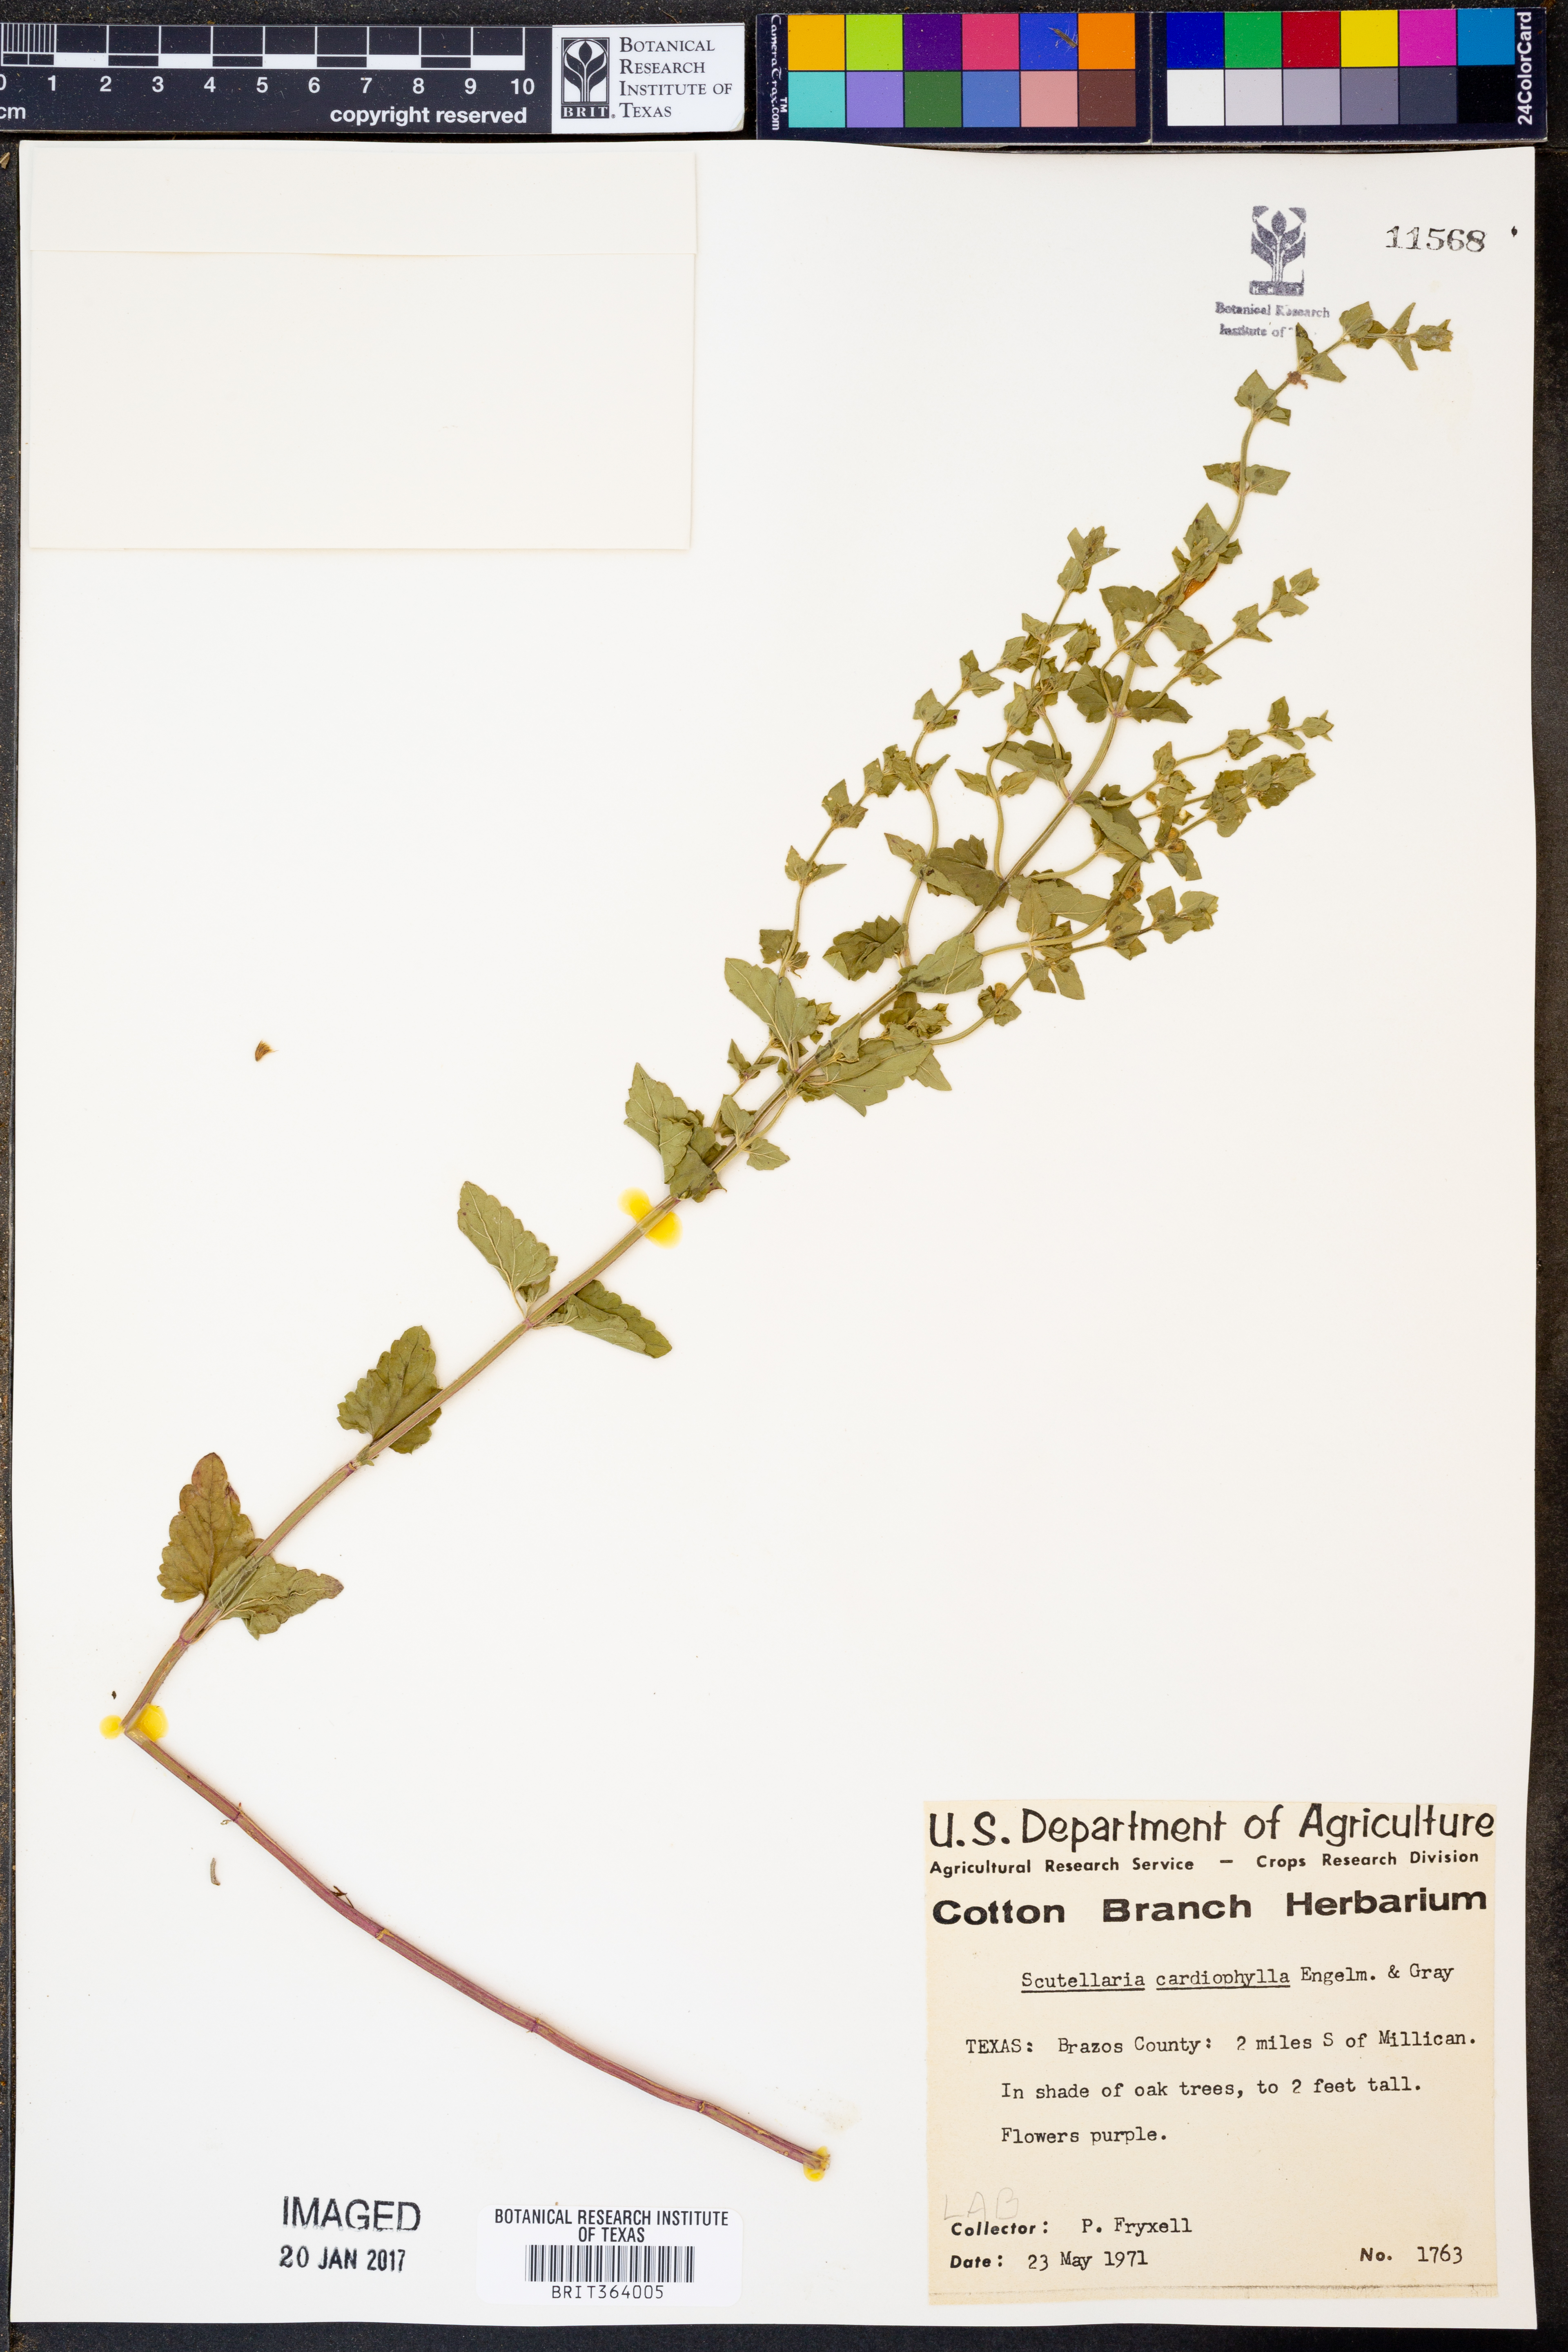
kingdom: Plantae
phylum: Tracheophyta
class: Magnoliopsida
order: Lamiales
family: Lamiaceae
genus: Scutellaria
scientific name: Scutellaria cardiophylla
